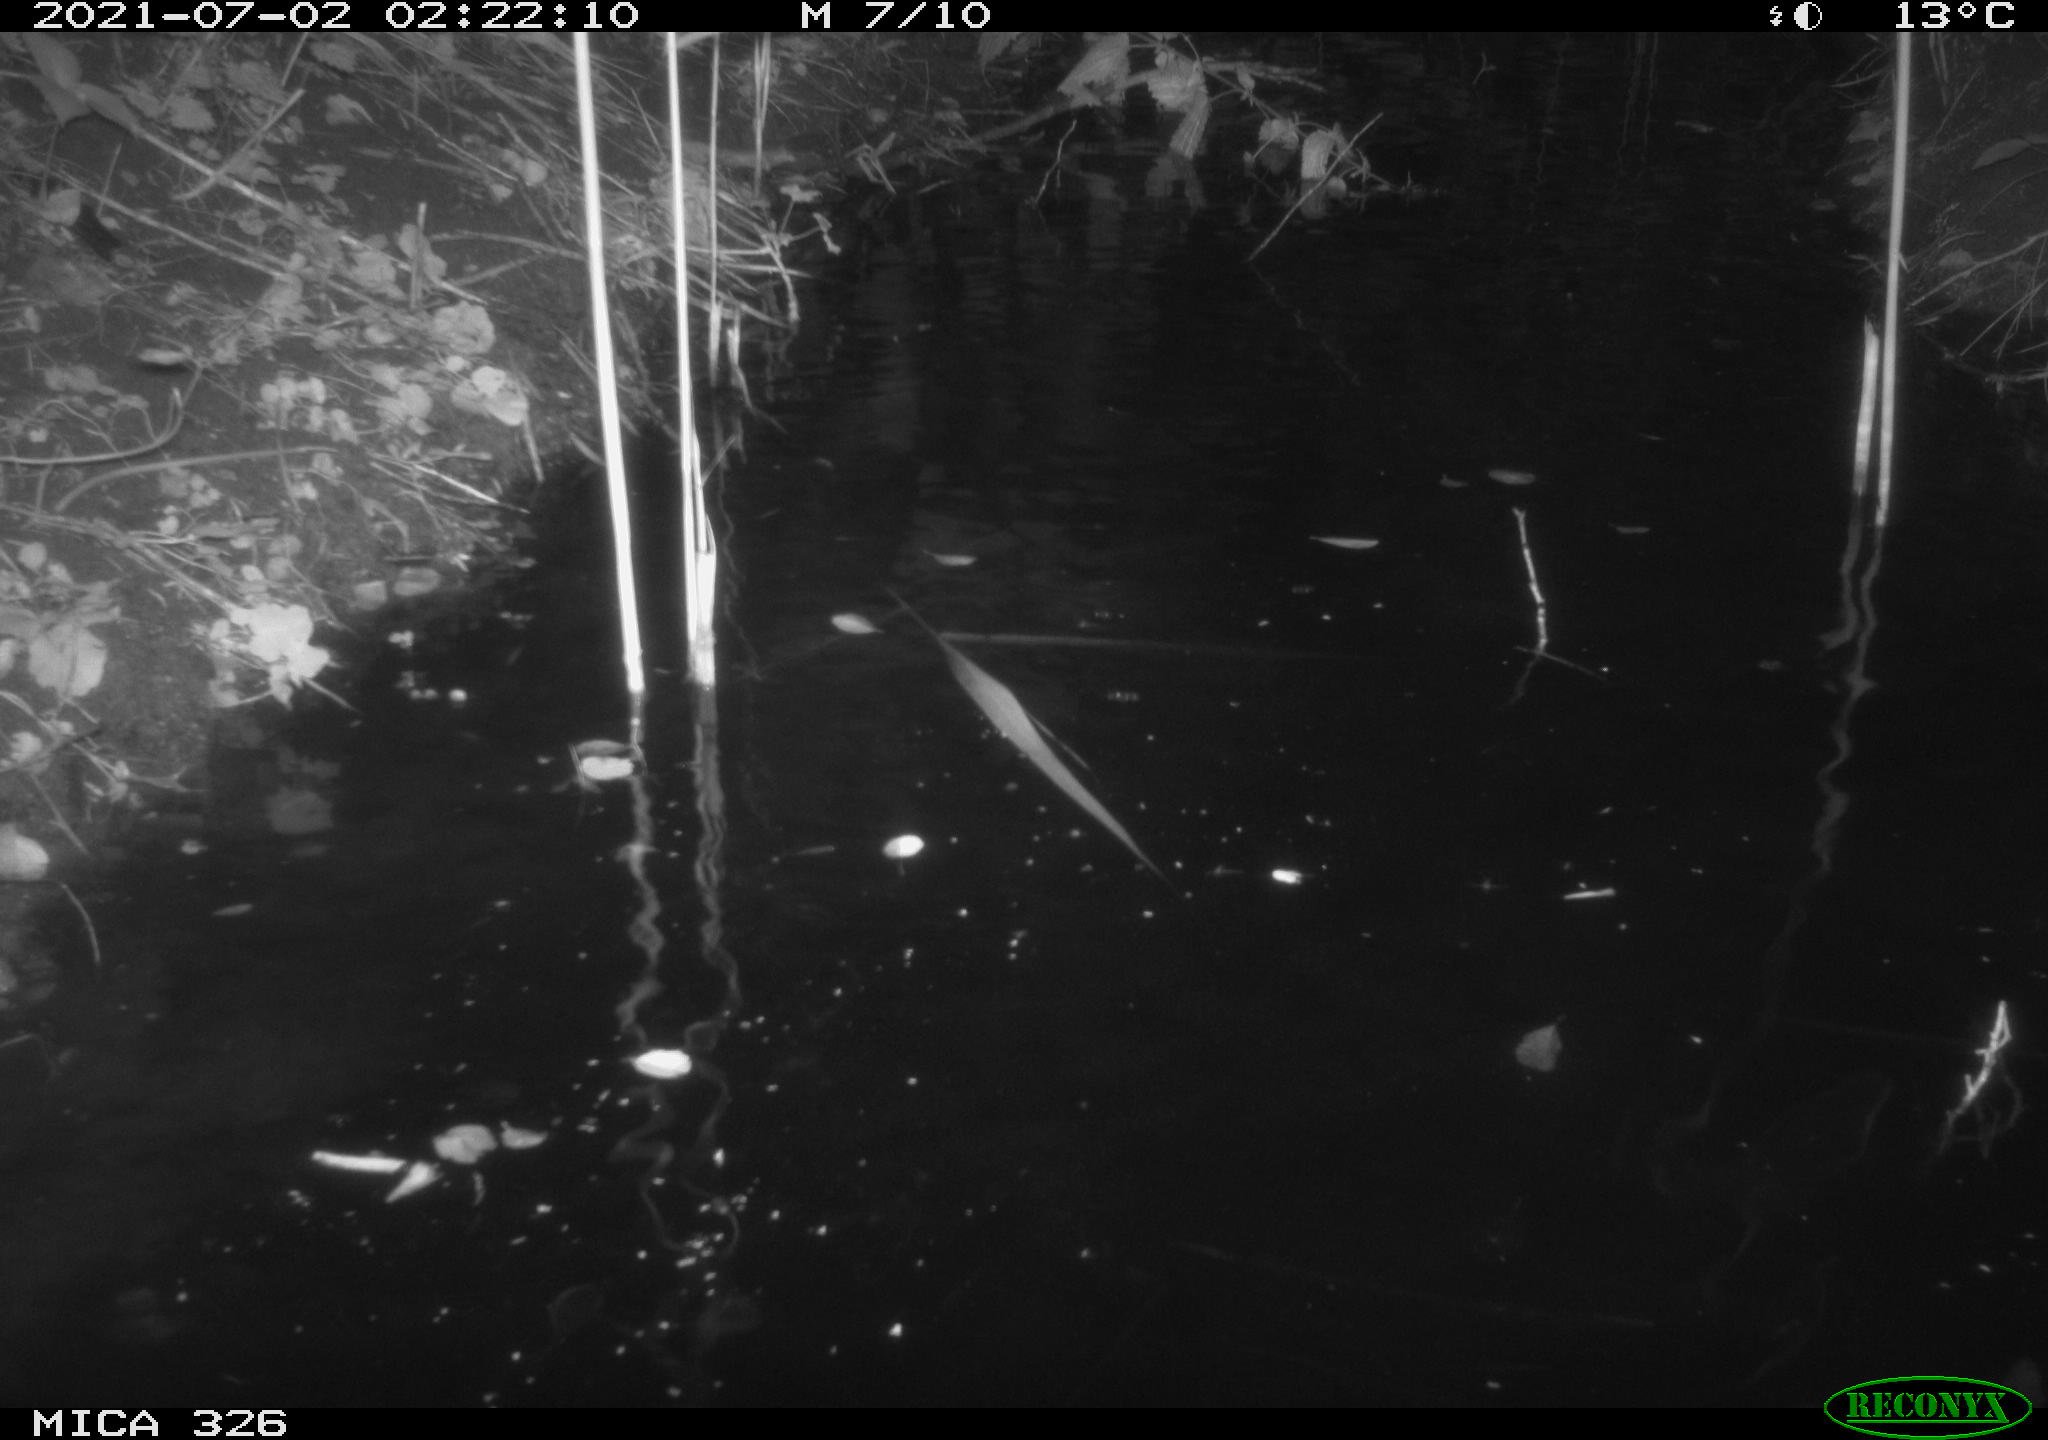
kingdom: Animalia
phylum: Chordata
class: Mammalia
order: Carnivora
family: Mustelidae
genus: Lutra
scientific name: Lutra lutra
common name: European otter
